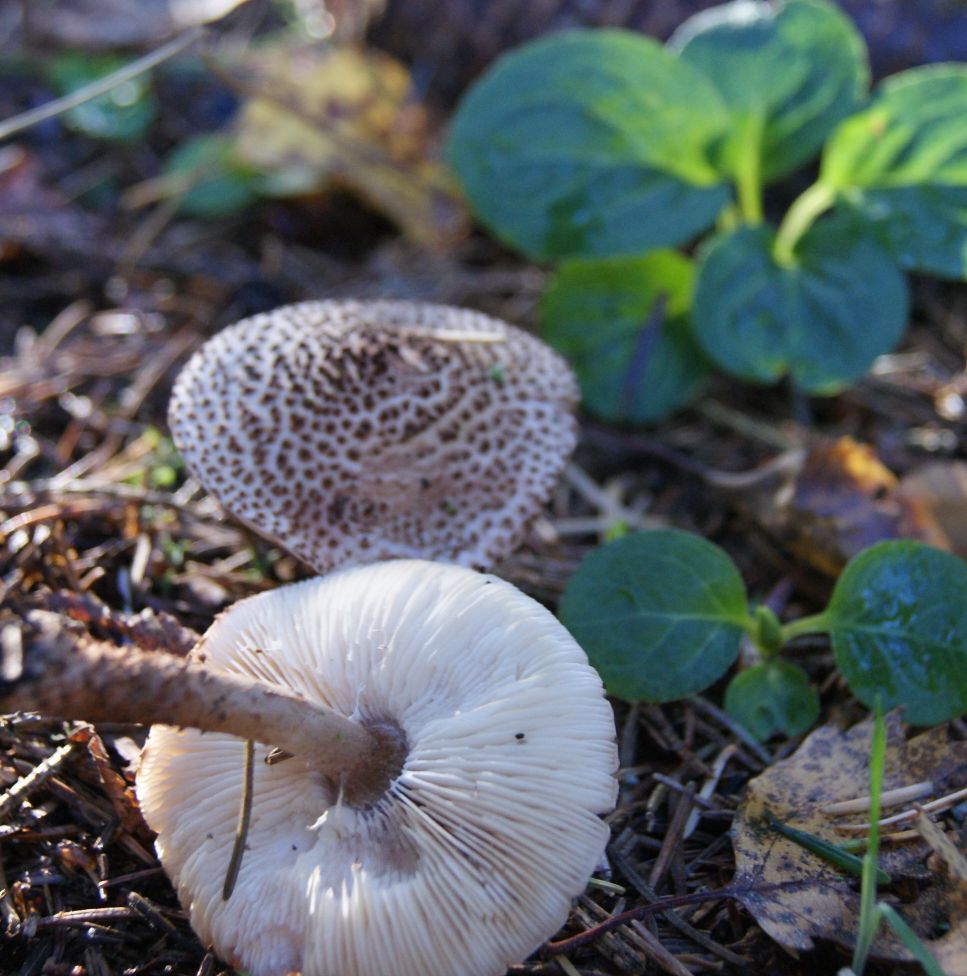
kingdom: Fungi
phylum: Basidiomycota
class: Agaricomycetes
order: Agaricales
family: Agaricaceae
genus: Echinoderma
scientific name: Echinoderma echinaceum
